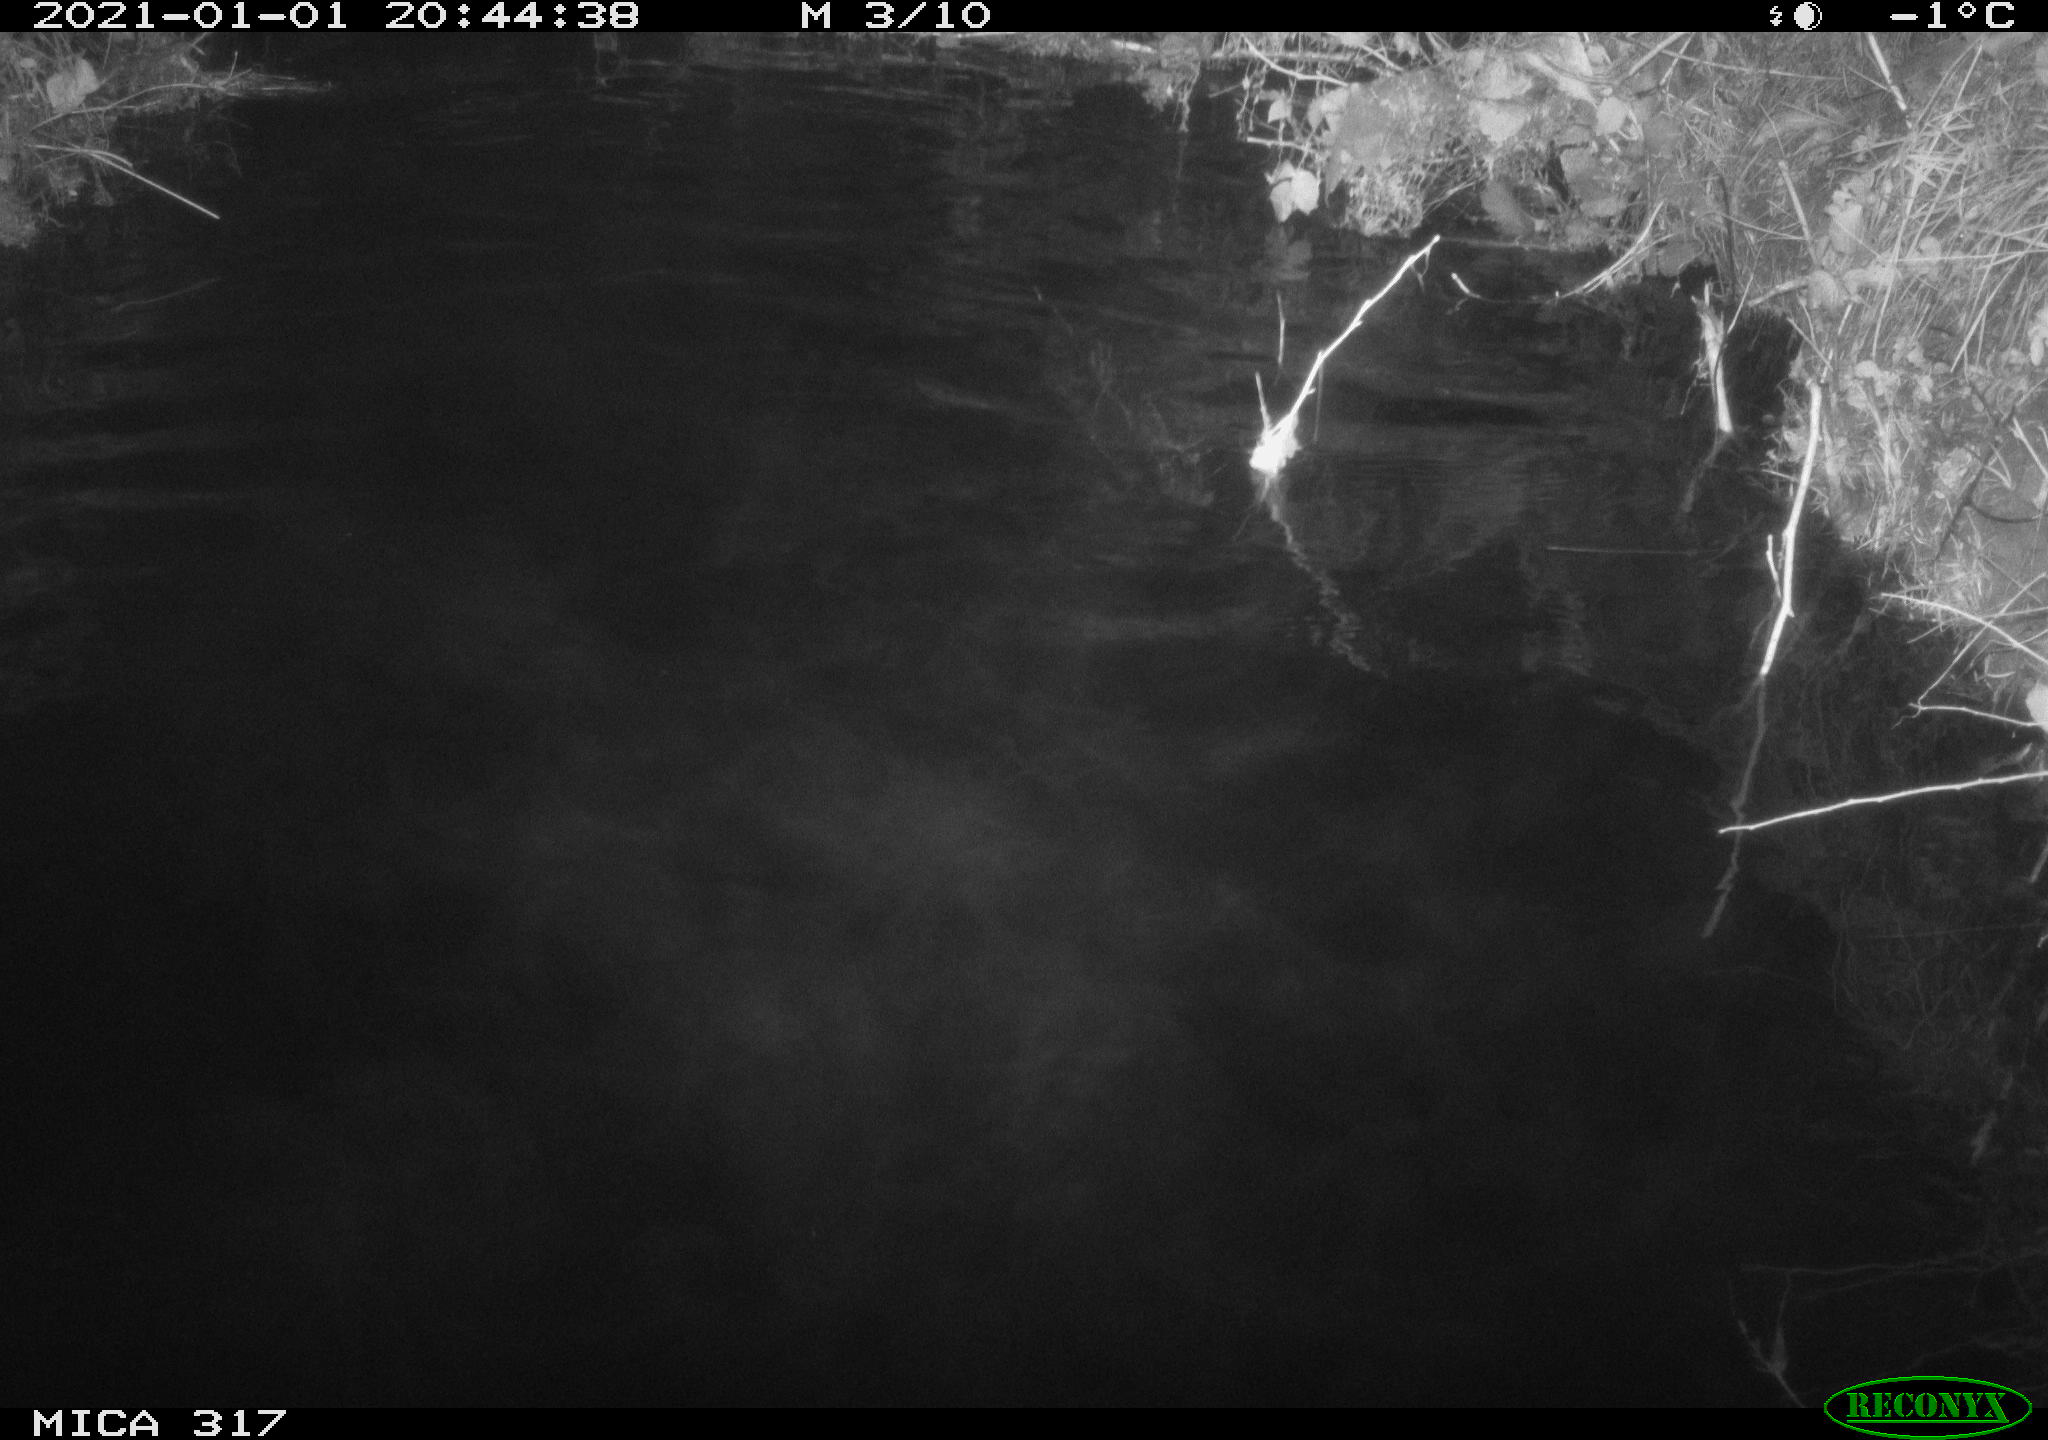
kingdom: Animalia
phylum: Chordata
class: Aves
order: Anseriformes
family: Anatidae
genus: Anas
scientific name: Anas platyrhynchos
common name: Mallard
